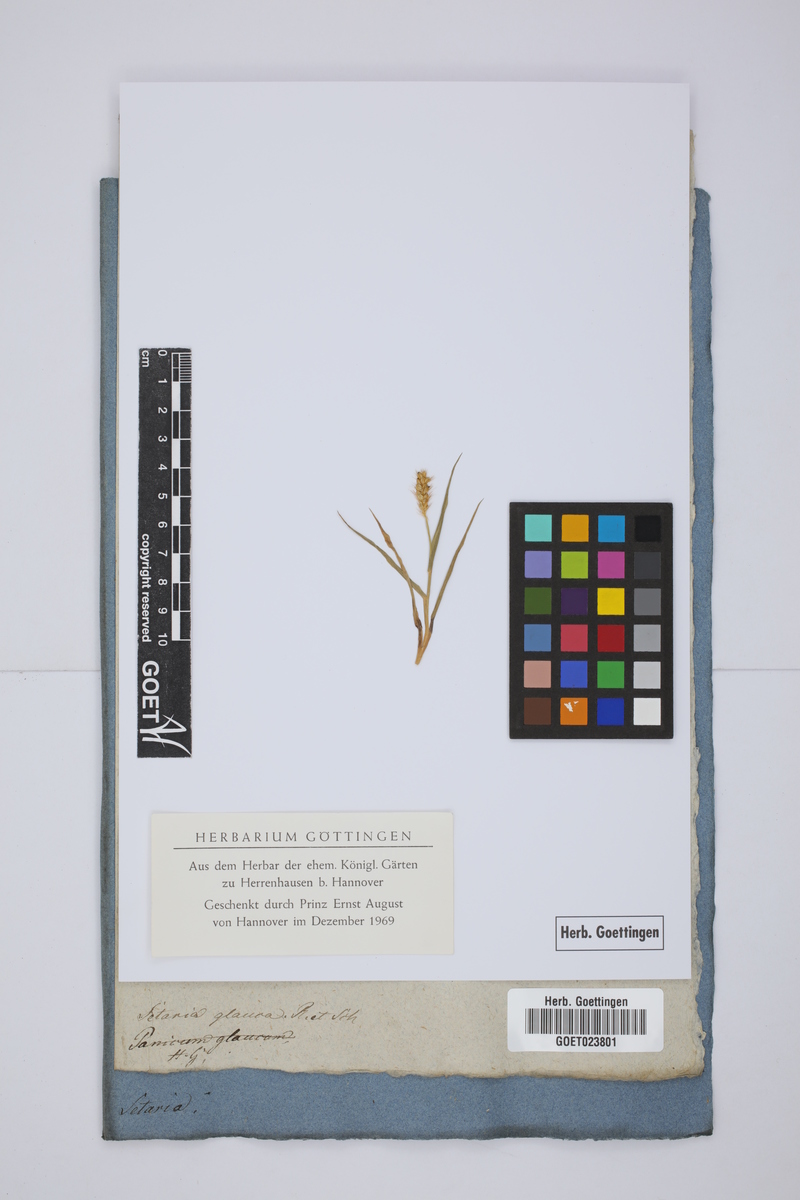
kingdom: Plantae
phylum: Tracheophyta
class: Liliopsida
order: Poales
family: Poaceae
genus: Cenchrus
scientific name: Cenchrus americanus
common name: Pearl millet
